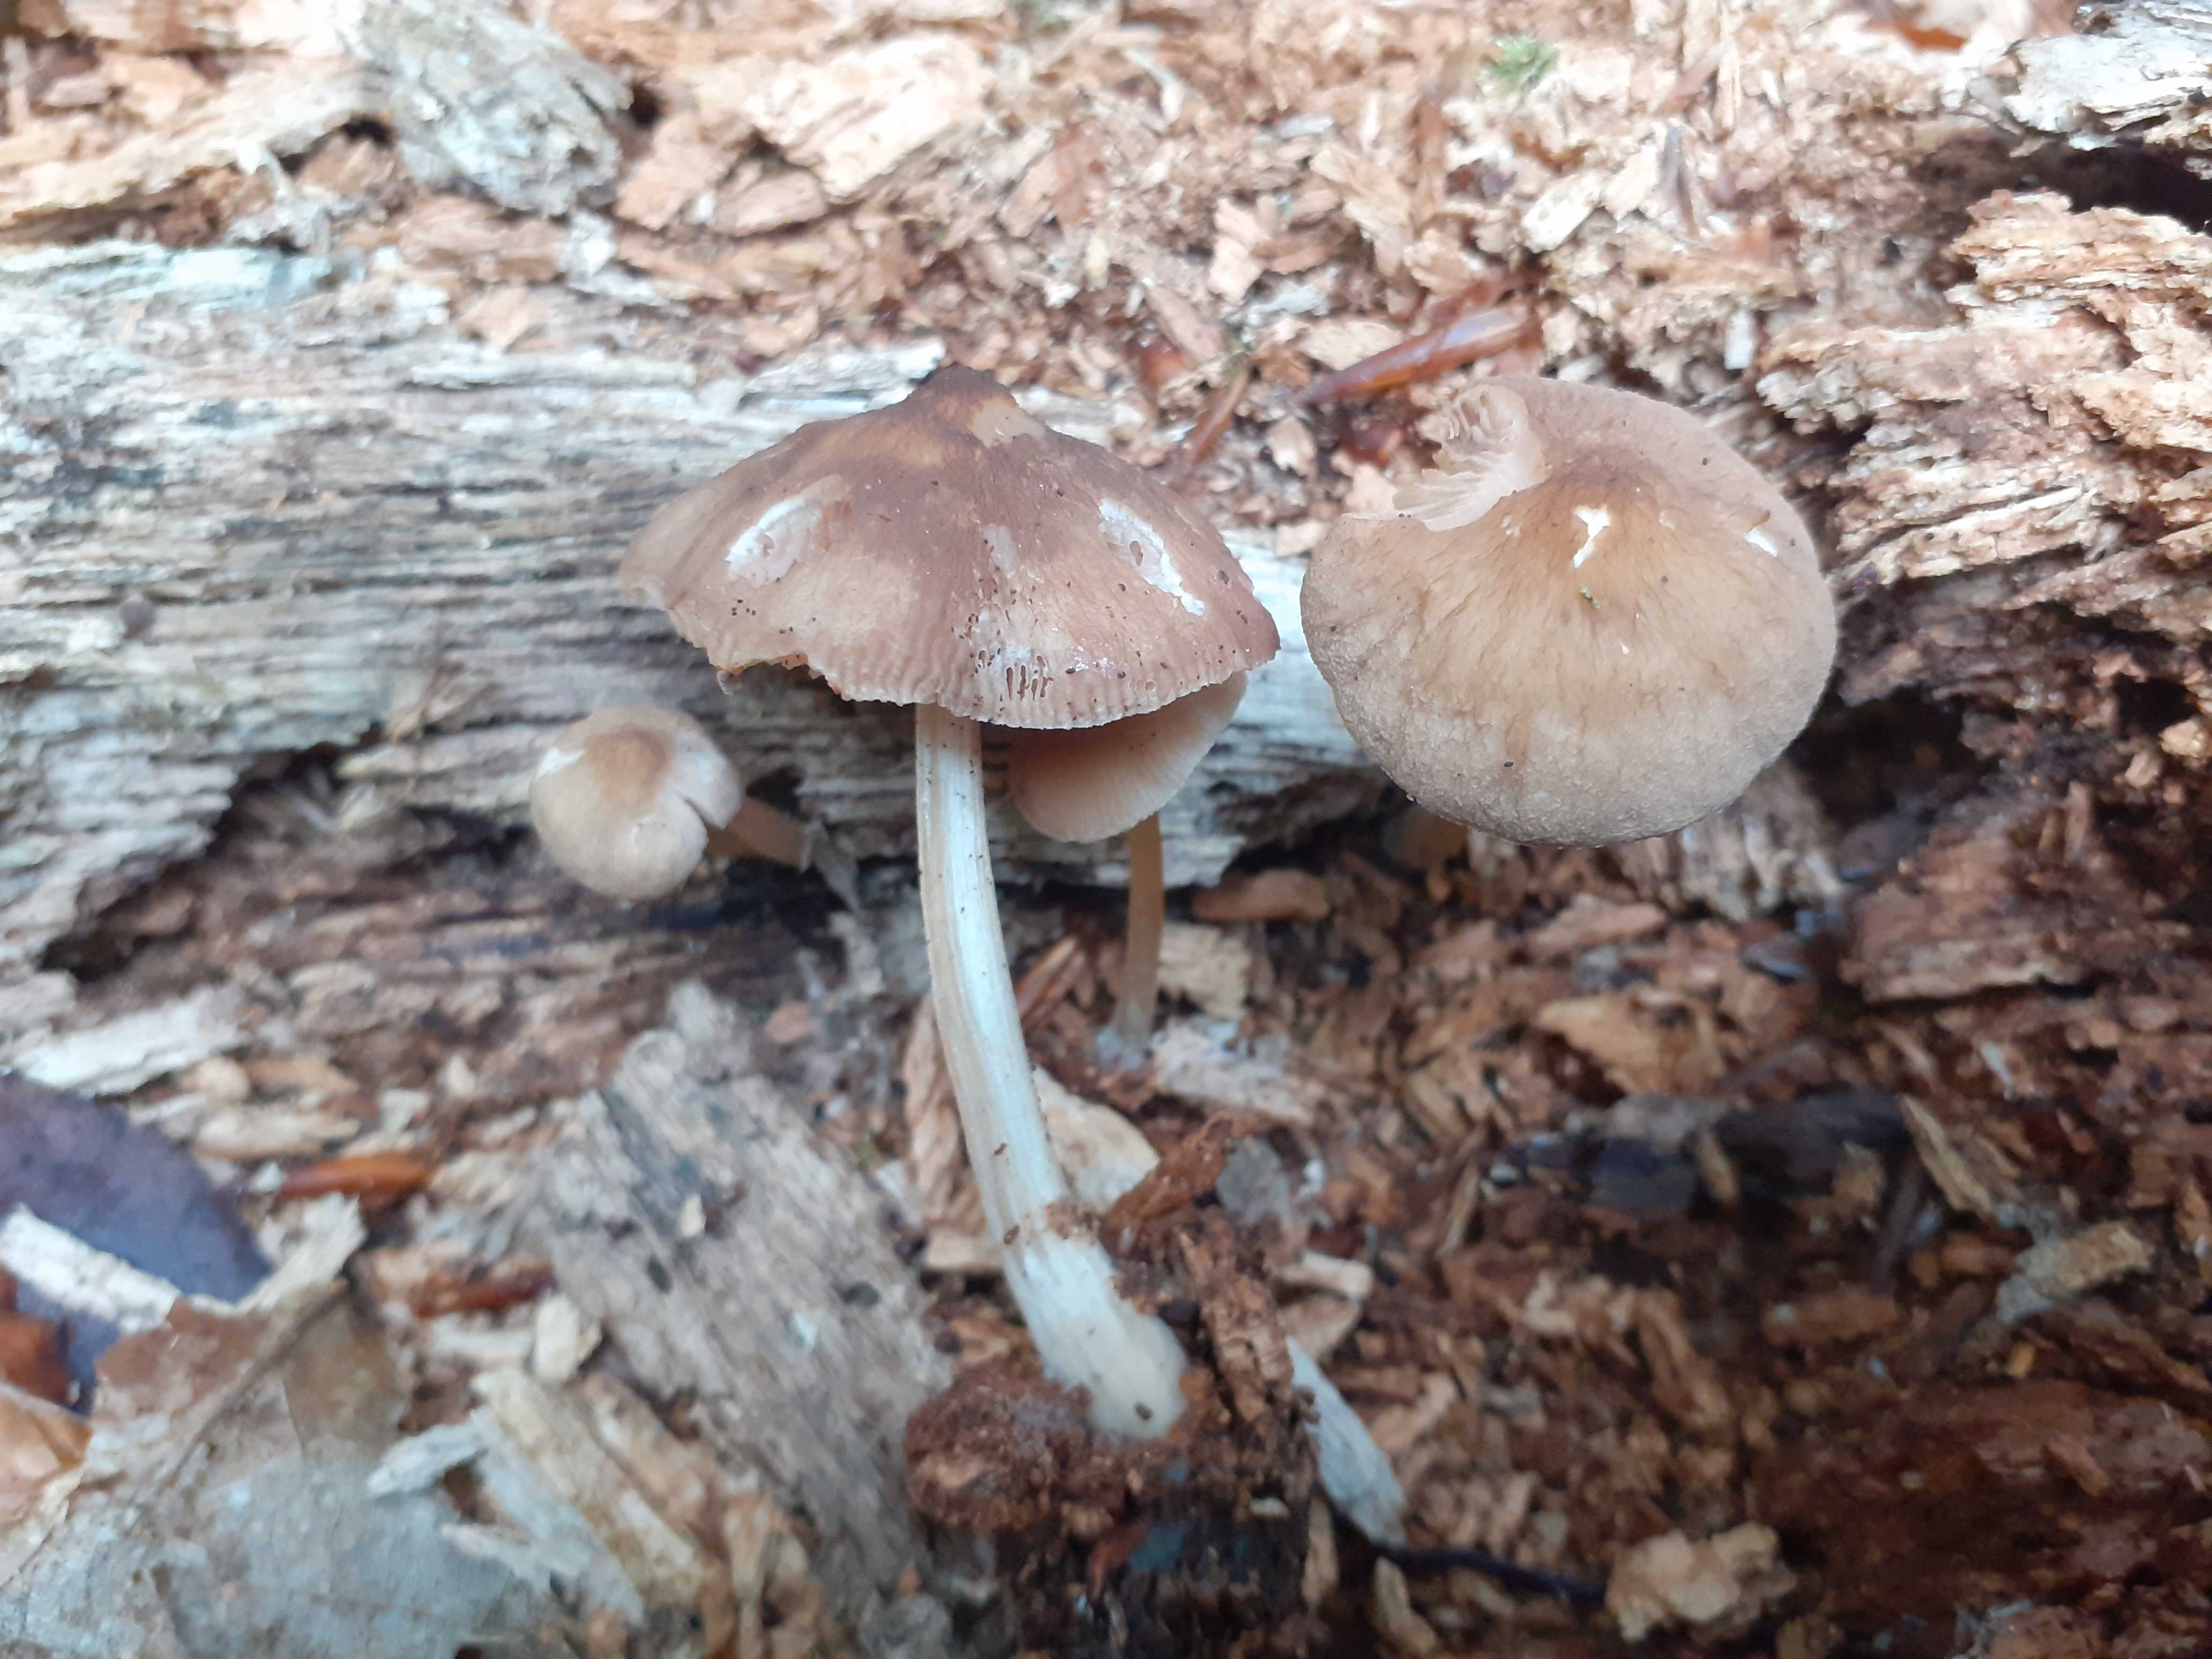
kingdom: Fungi
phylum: Basidiomycota
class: Agaricomycetes
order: Agaricales
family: Pluteaceae
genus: Pluteus
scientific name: Pluteus phlebophorus
